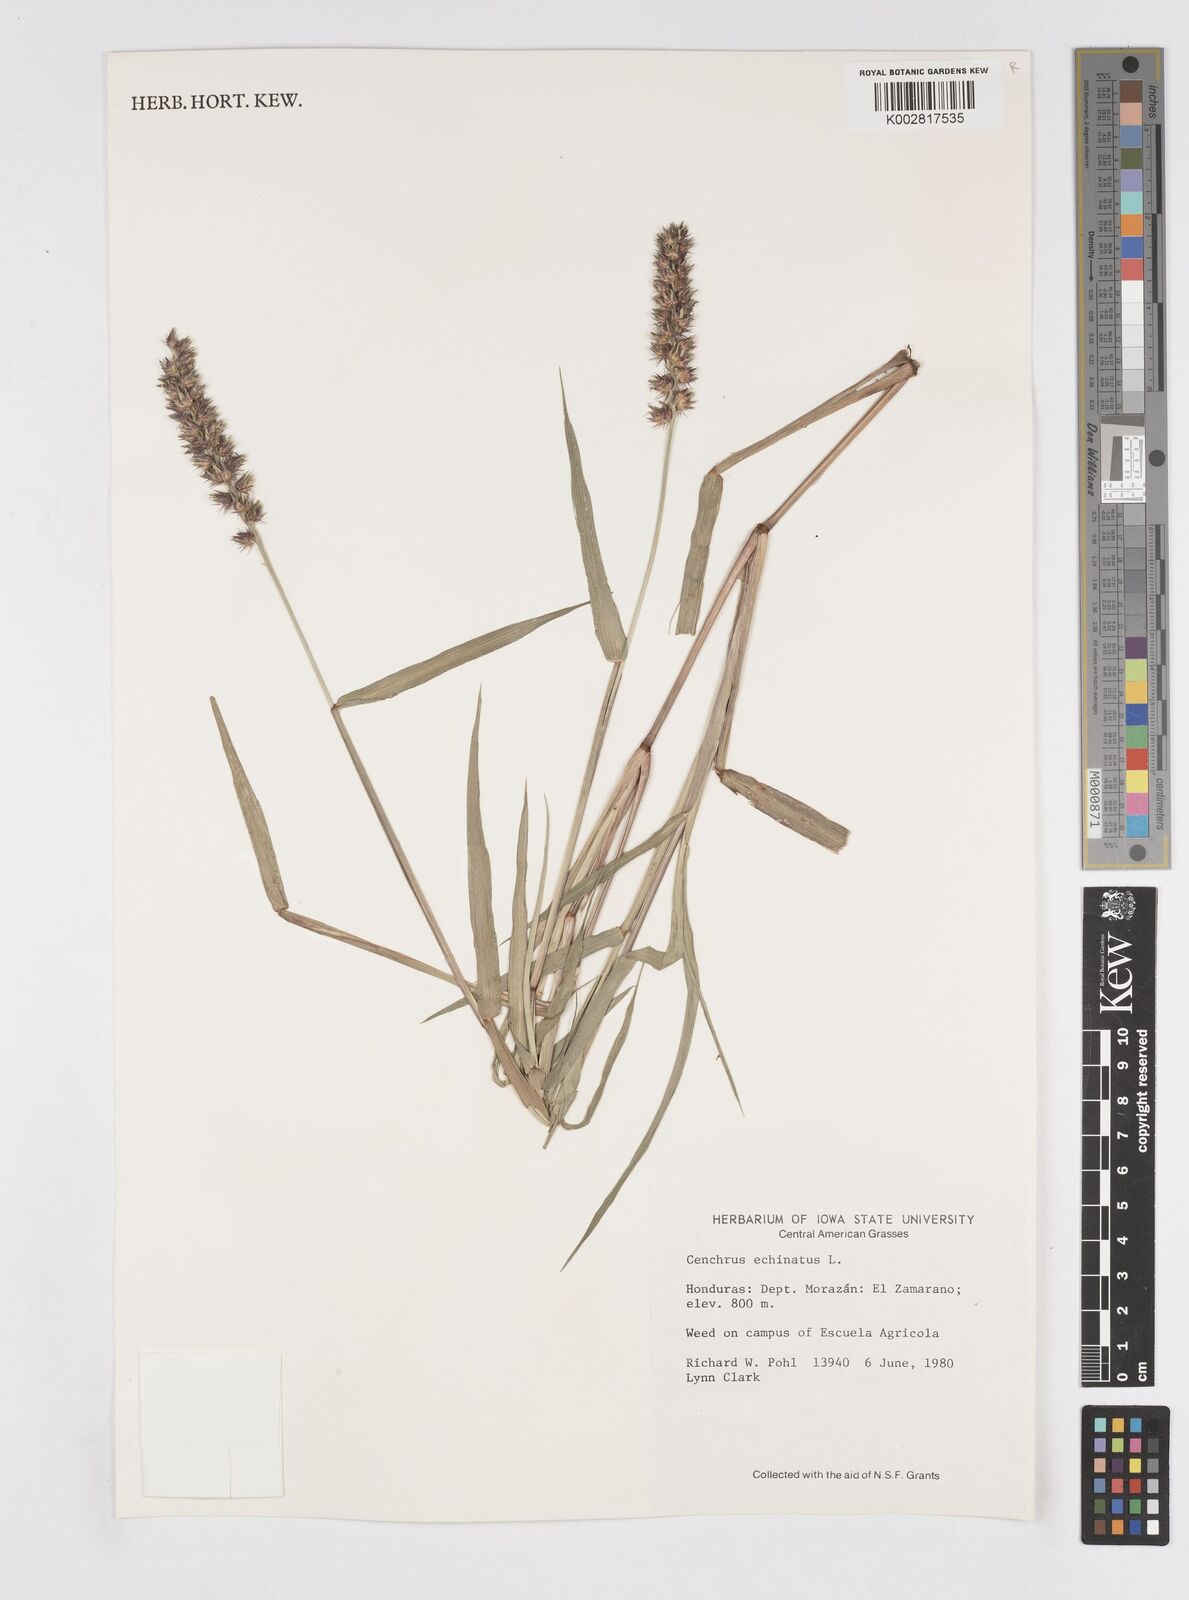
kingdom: Plantae
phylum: Tracheophyta
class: Liliopsida
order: Poales
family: Poaceae
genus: Cenchrus
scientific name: Cenchrus
